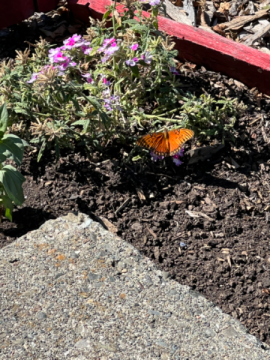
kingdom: Animalia
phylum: Arthropoda
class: Insecta
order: Lepidoptera
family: Nymphalidae
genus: Dione
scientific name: Dione juno
